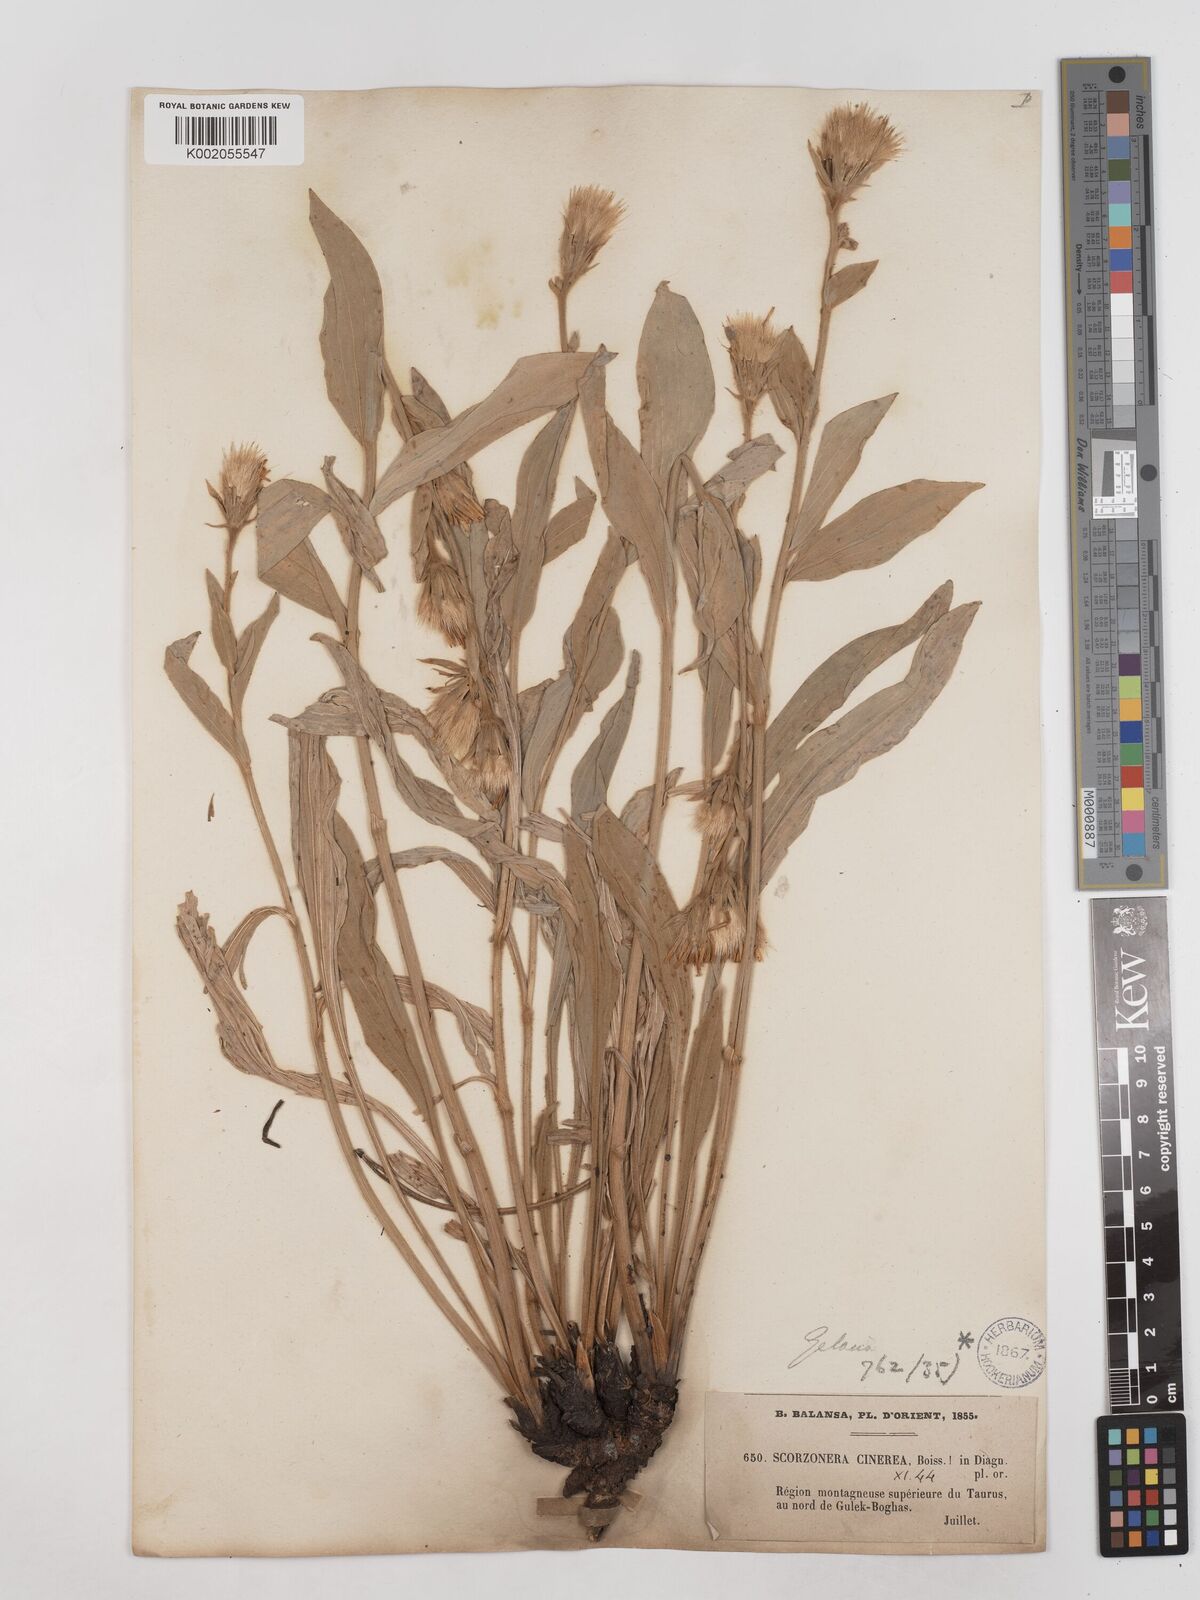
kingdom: Plantae
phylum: Tracheophyta
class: Magnoliopsida
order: Asterales
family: Asteraceae
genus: Cigdemia
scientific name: Cigdemia cinerea
